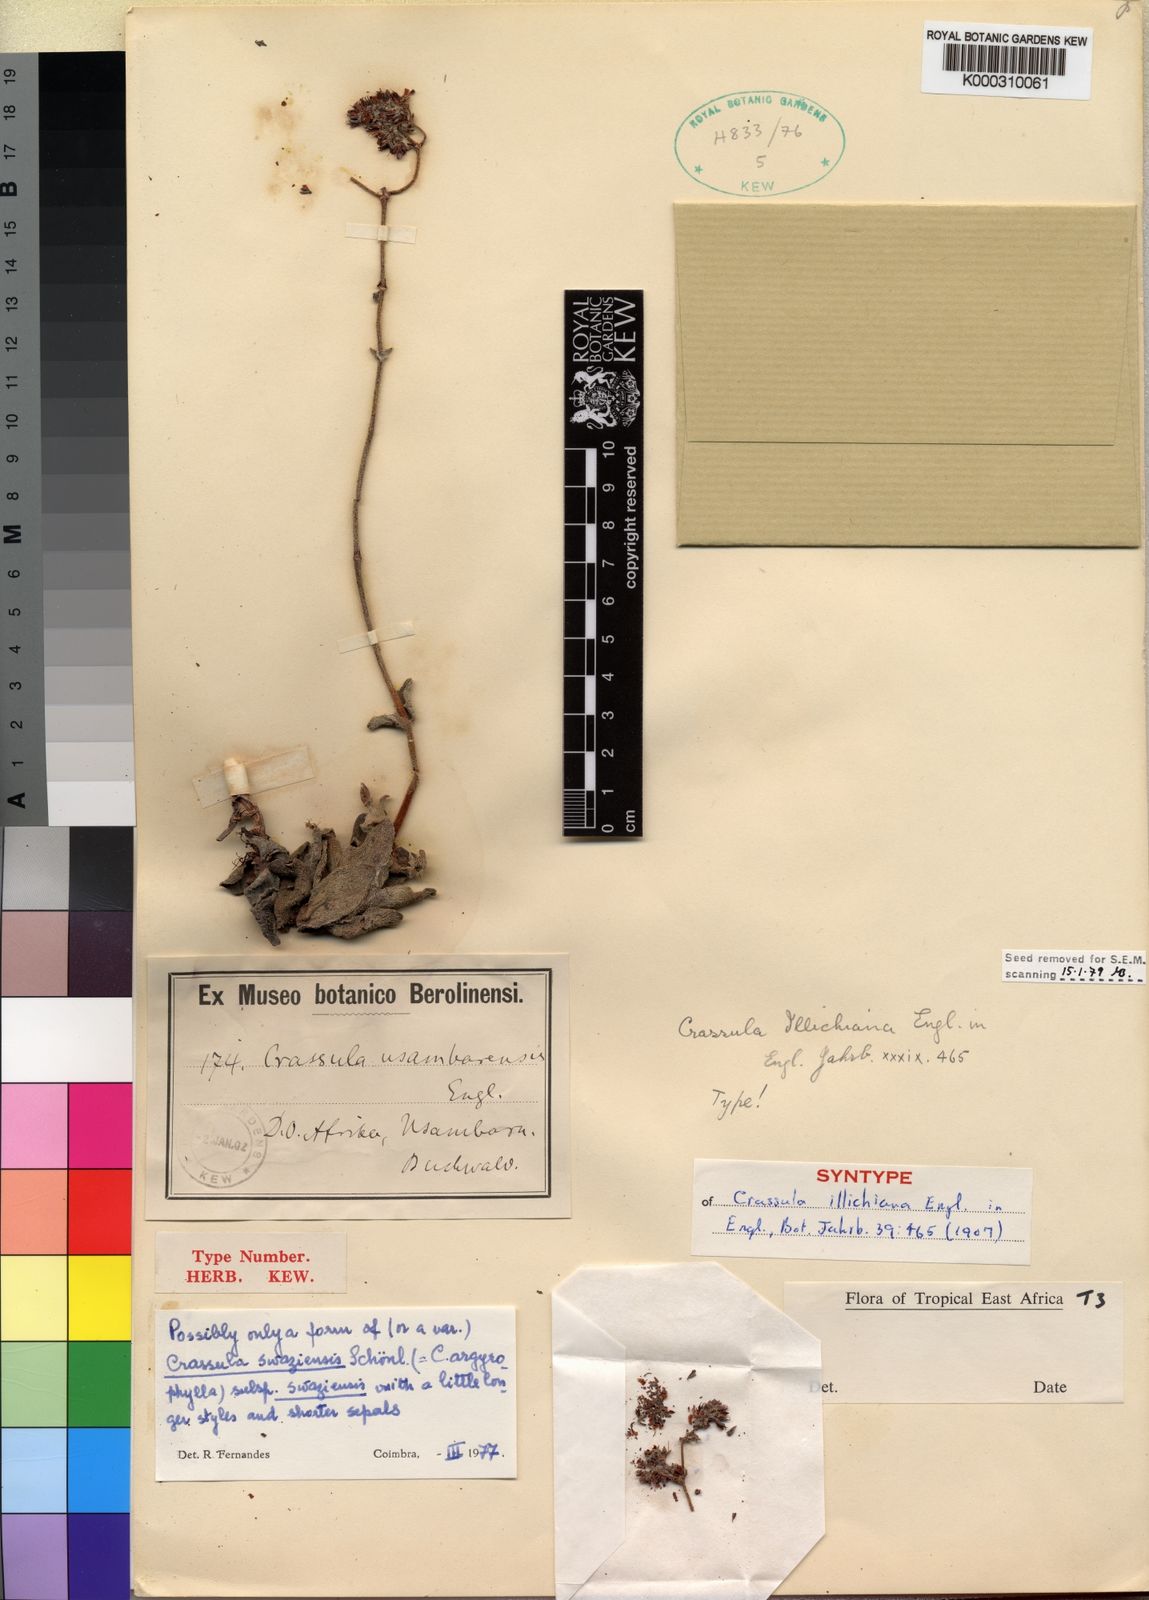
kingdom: Plantae
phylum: Tracheophyta
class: Magnoliopsida
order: Saxifragales
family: Crassulaceae
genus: Crassula
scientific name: Crassula globularioides
